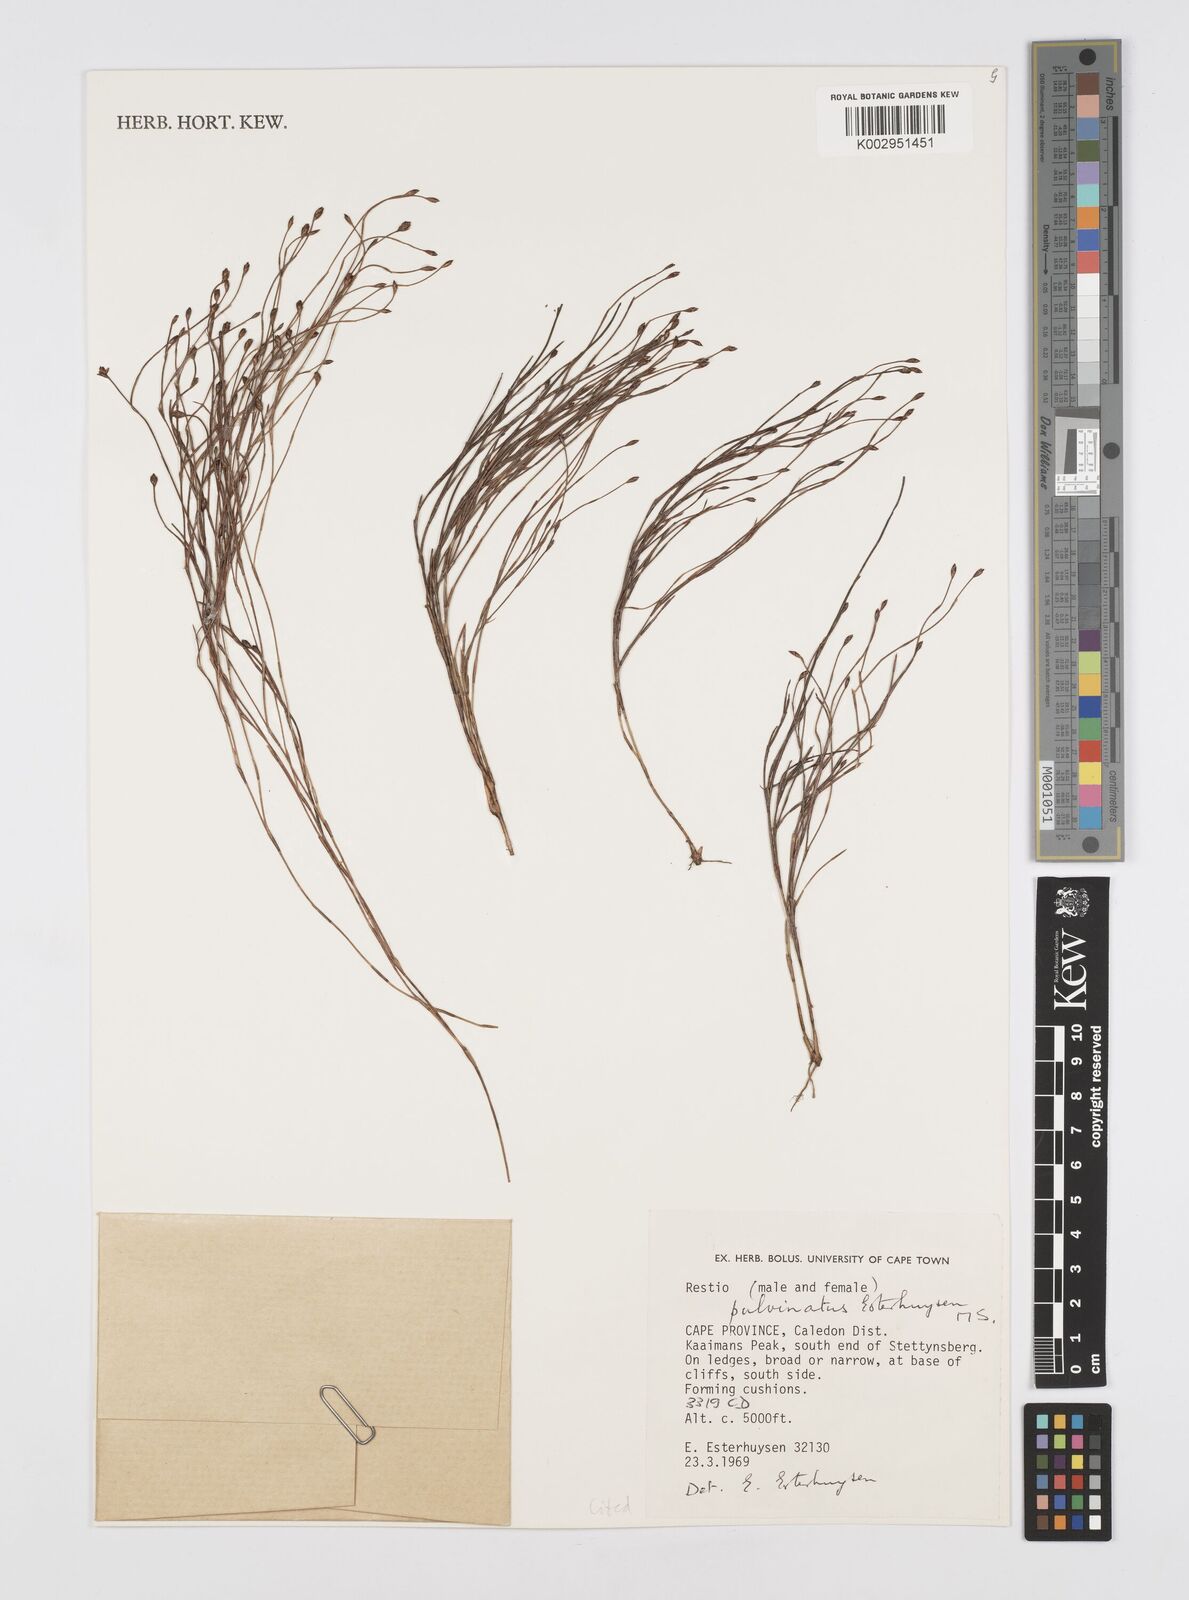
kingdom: Plantae
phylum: Tracheophyta
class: Liliopsida
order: Poales
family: Restionaceae
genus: Restio
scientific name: Restio pulvinatus
